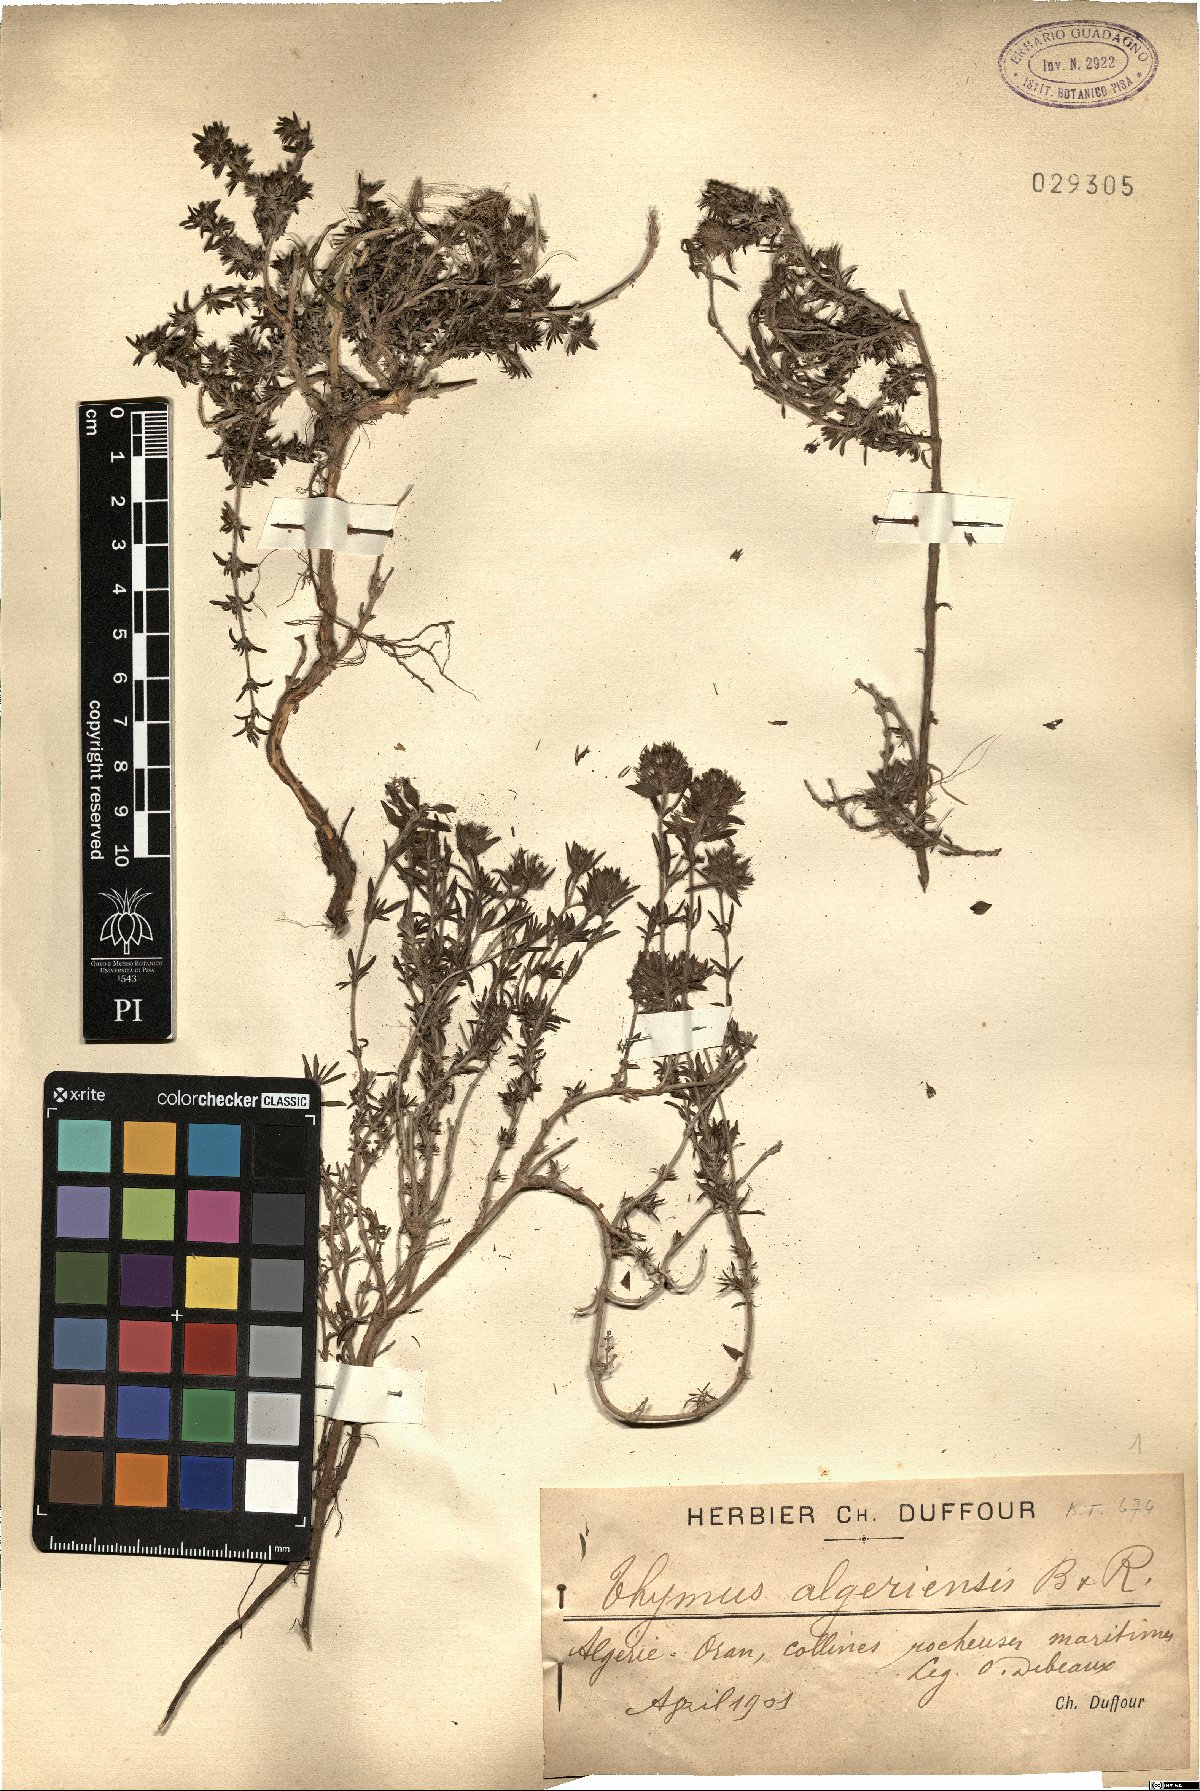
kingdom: Plantae
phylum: Tracheophyta
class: Magnoliopsida
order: Lamiales
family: Lamiaceae
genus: Thymus
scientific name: Thymus algeriensis
